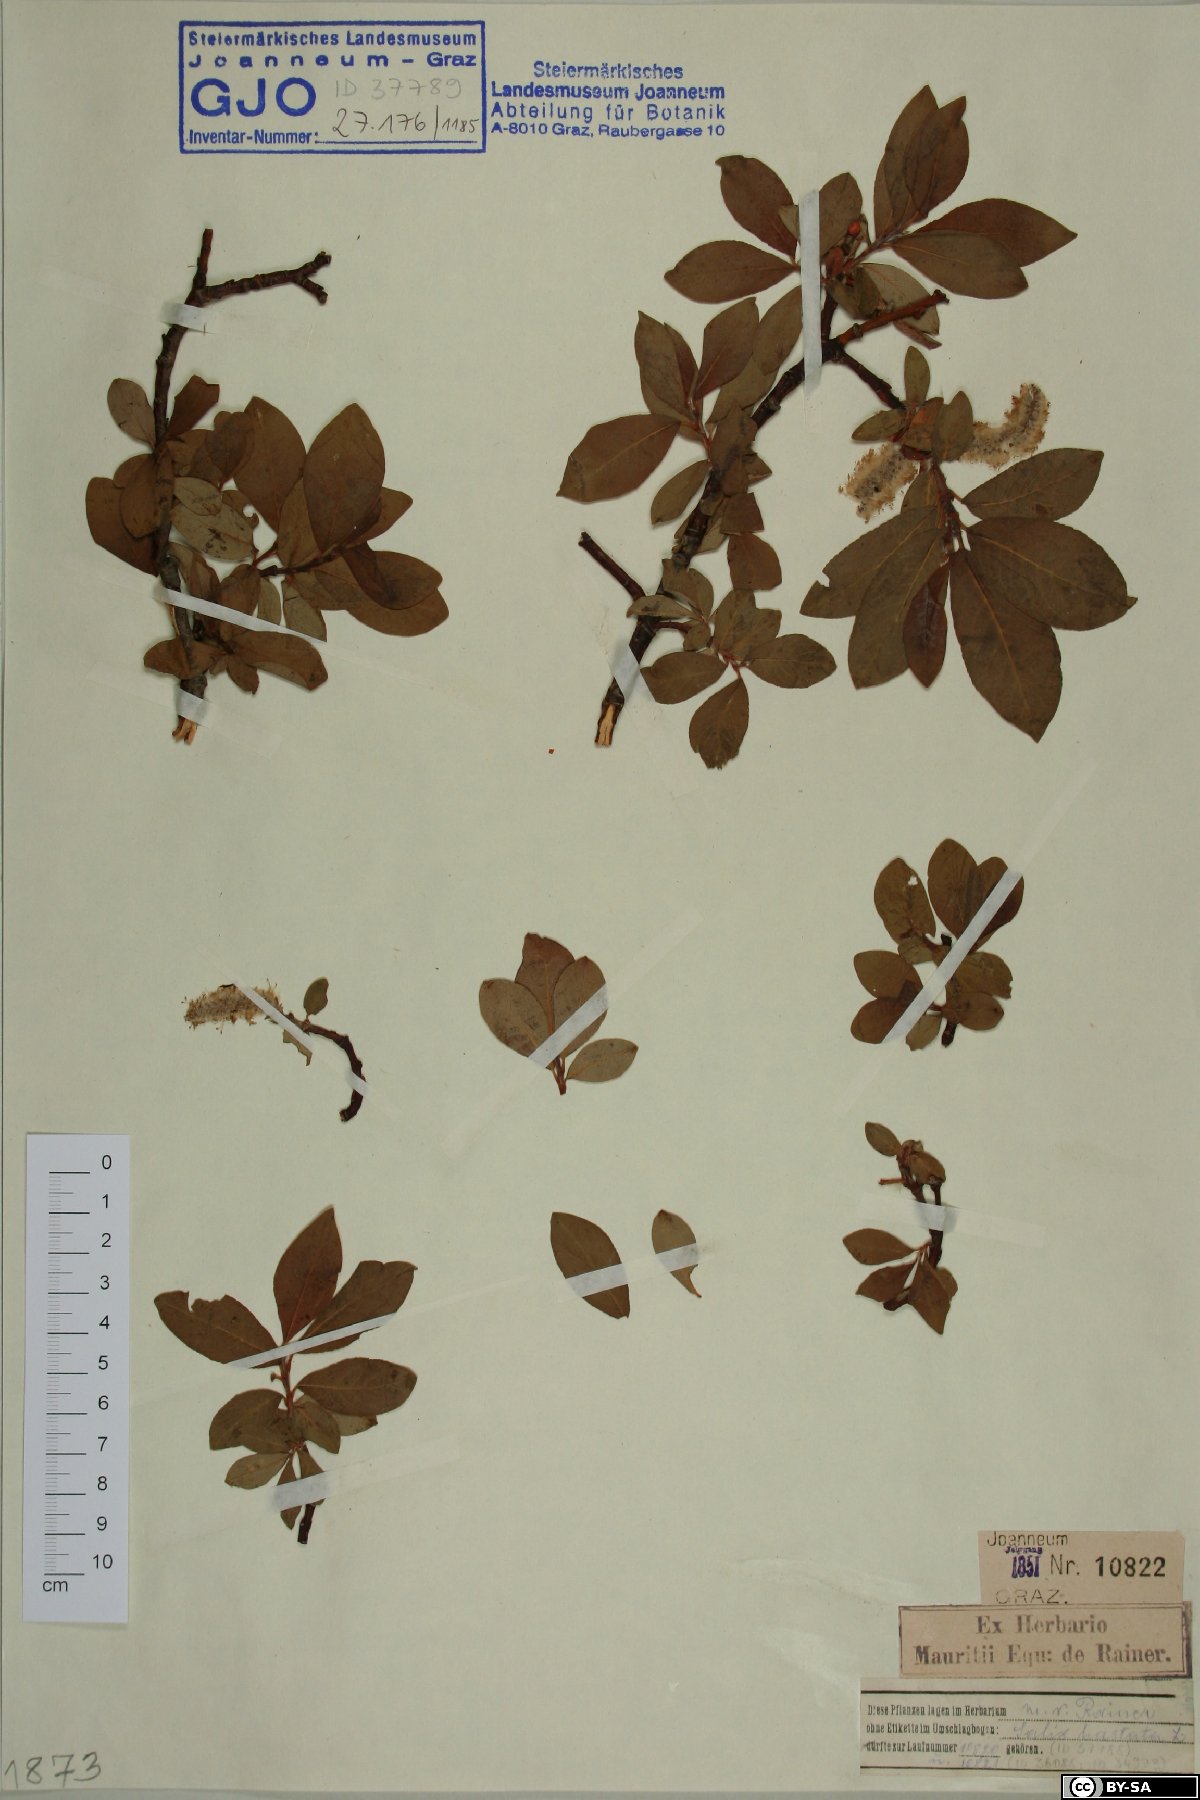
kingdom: Plantae
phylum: Tracheophyta
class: Magnoliopsida
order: Malpighiales
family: Salicaceae
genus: Salix
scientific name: Salix hastata
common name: Halberd willow
